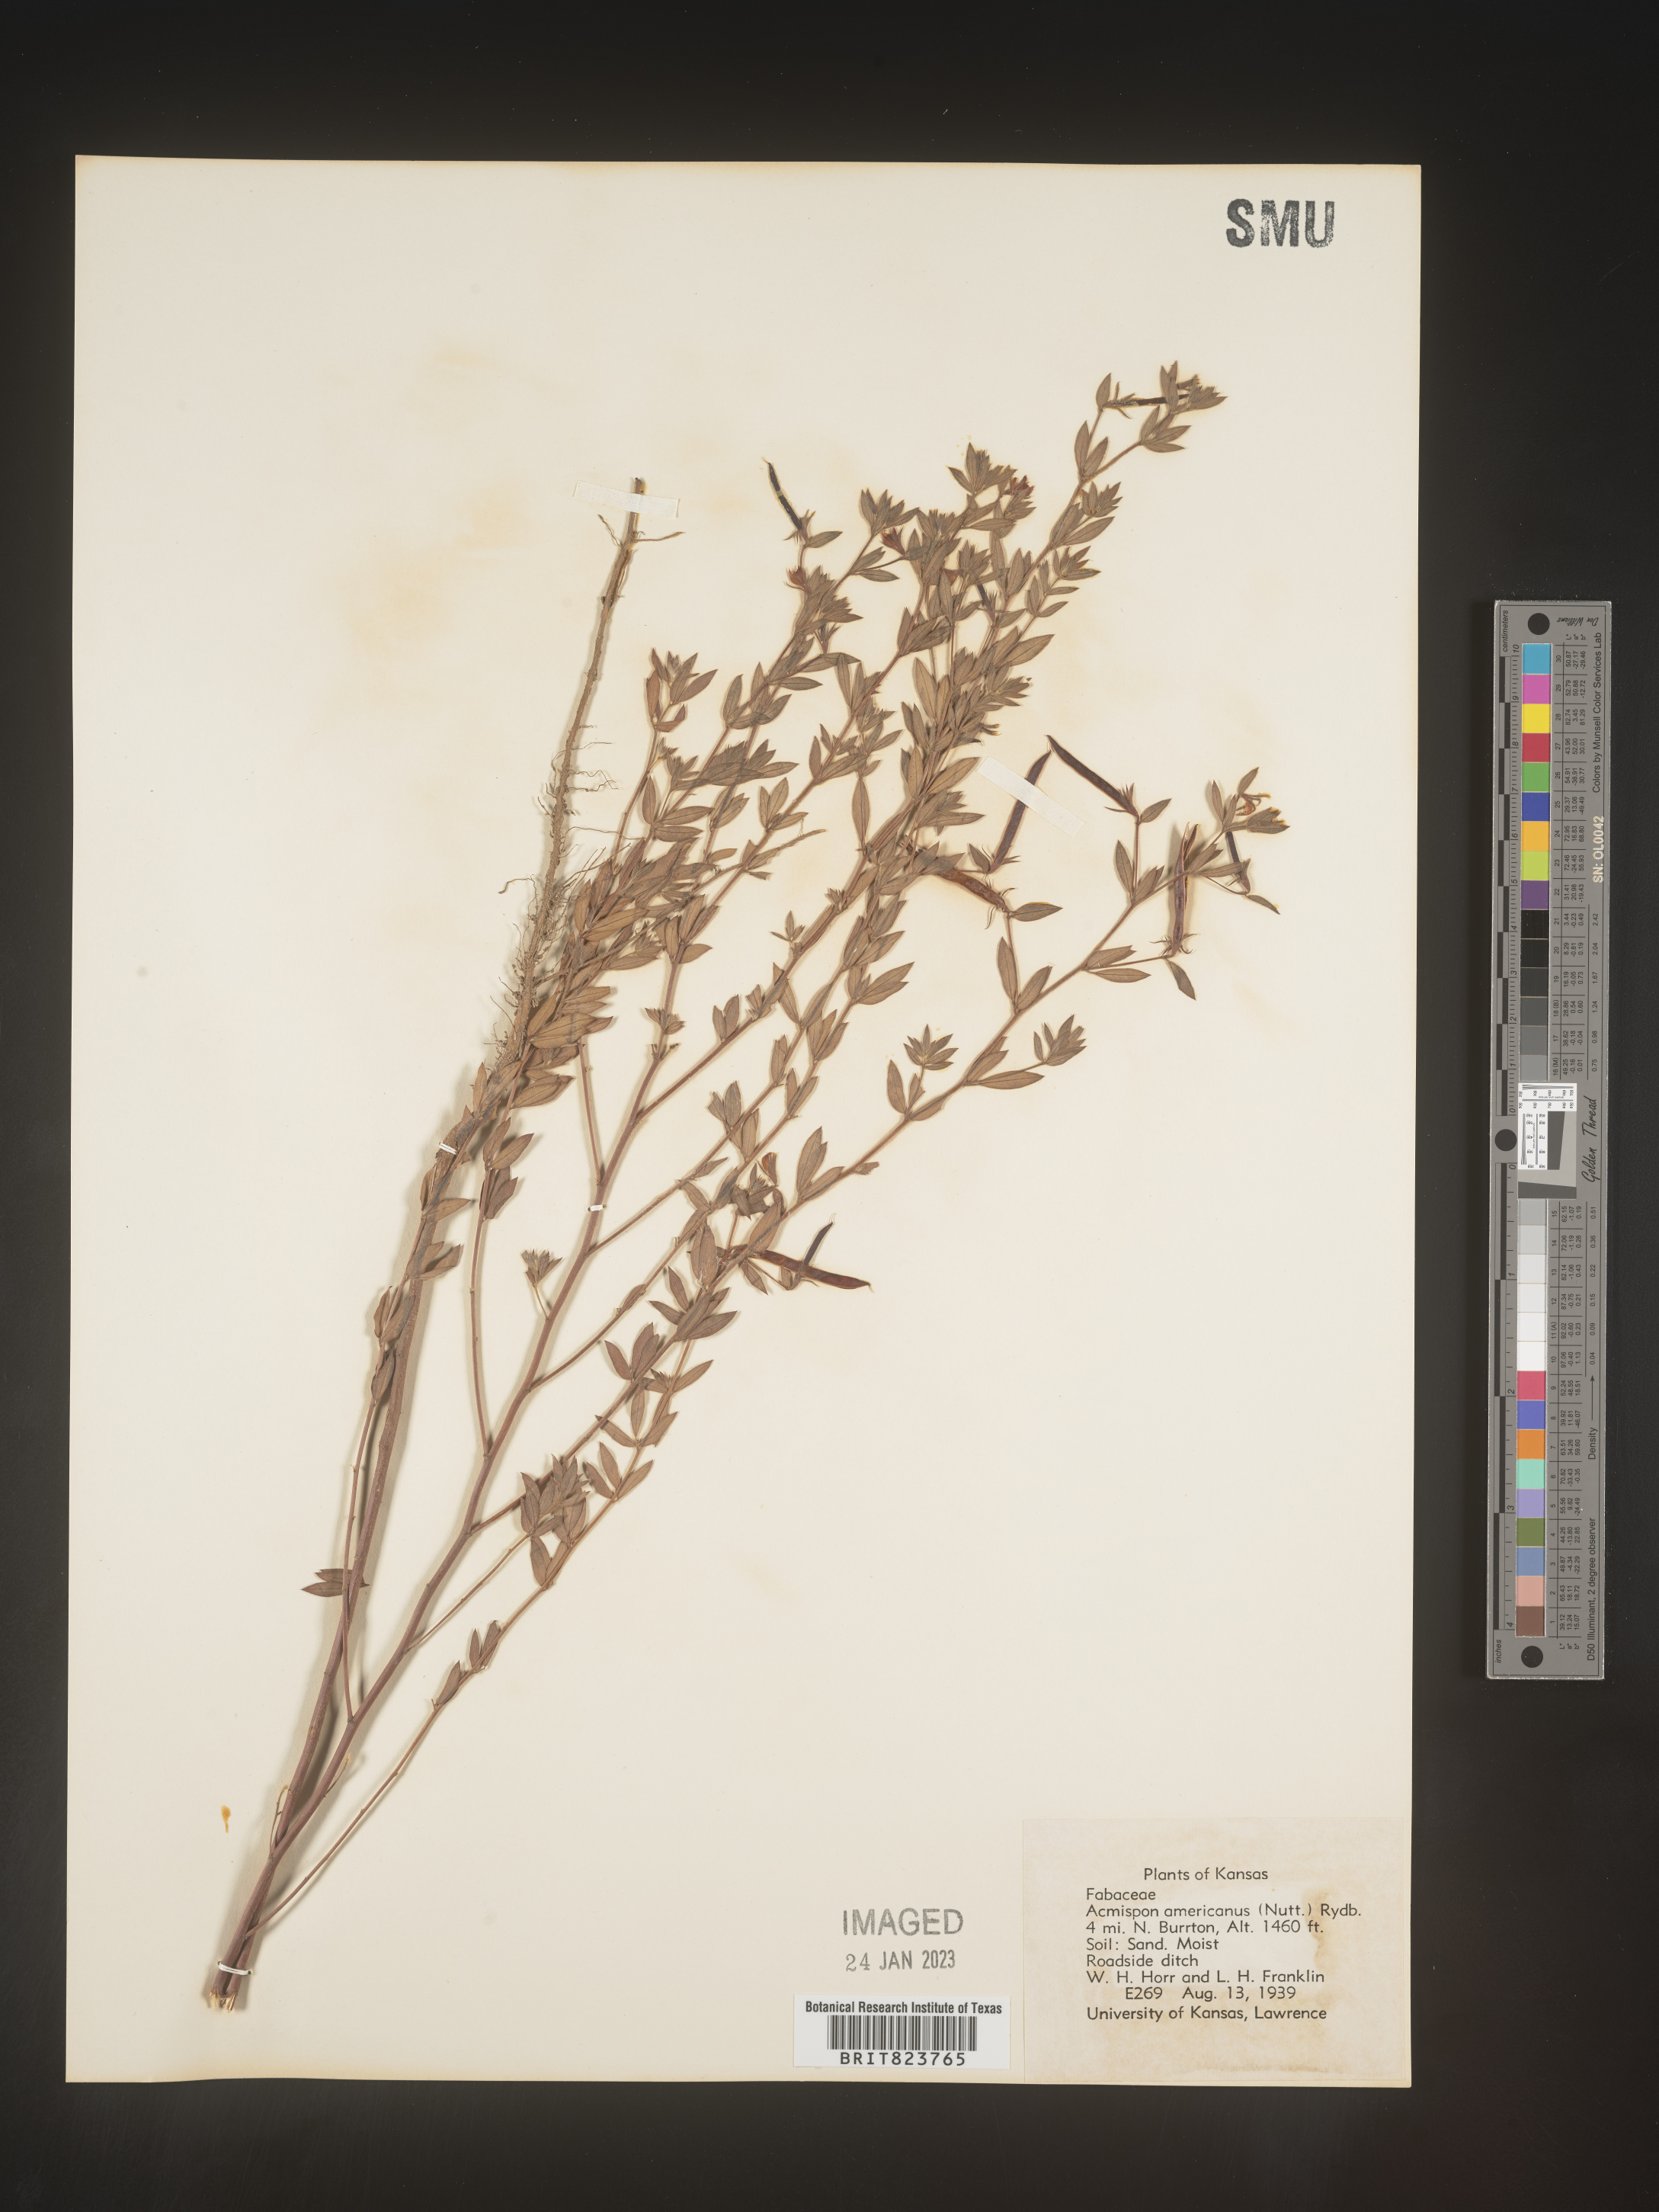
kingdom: Plantae
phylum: Tracheophyta
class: Magnoliopsida
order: Fabales
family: Fabaceae
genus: Acmispon
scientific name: Acmispon americanus
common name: American bird's-foot trefoil
